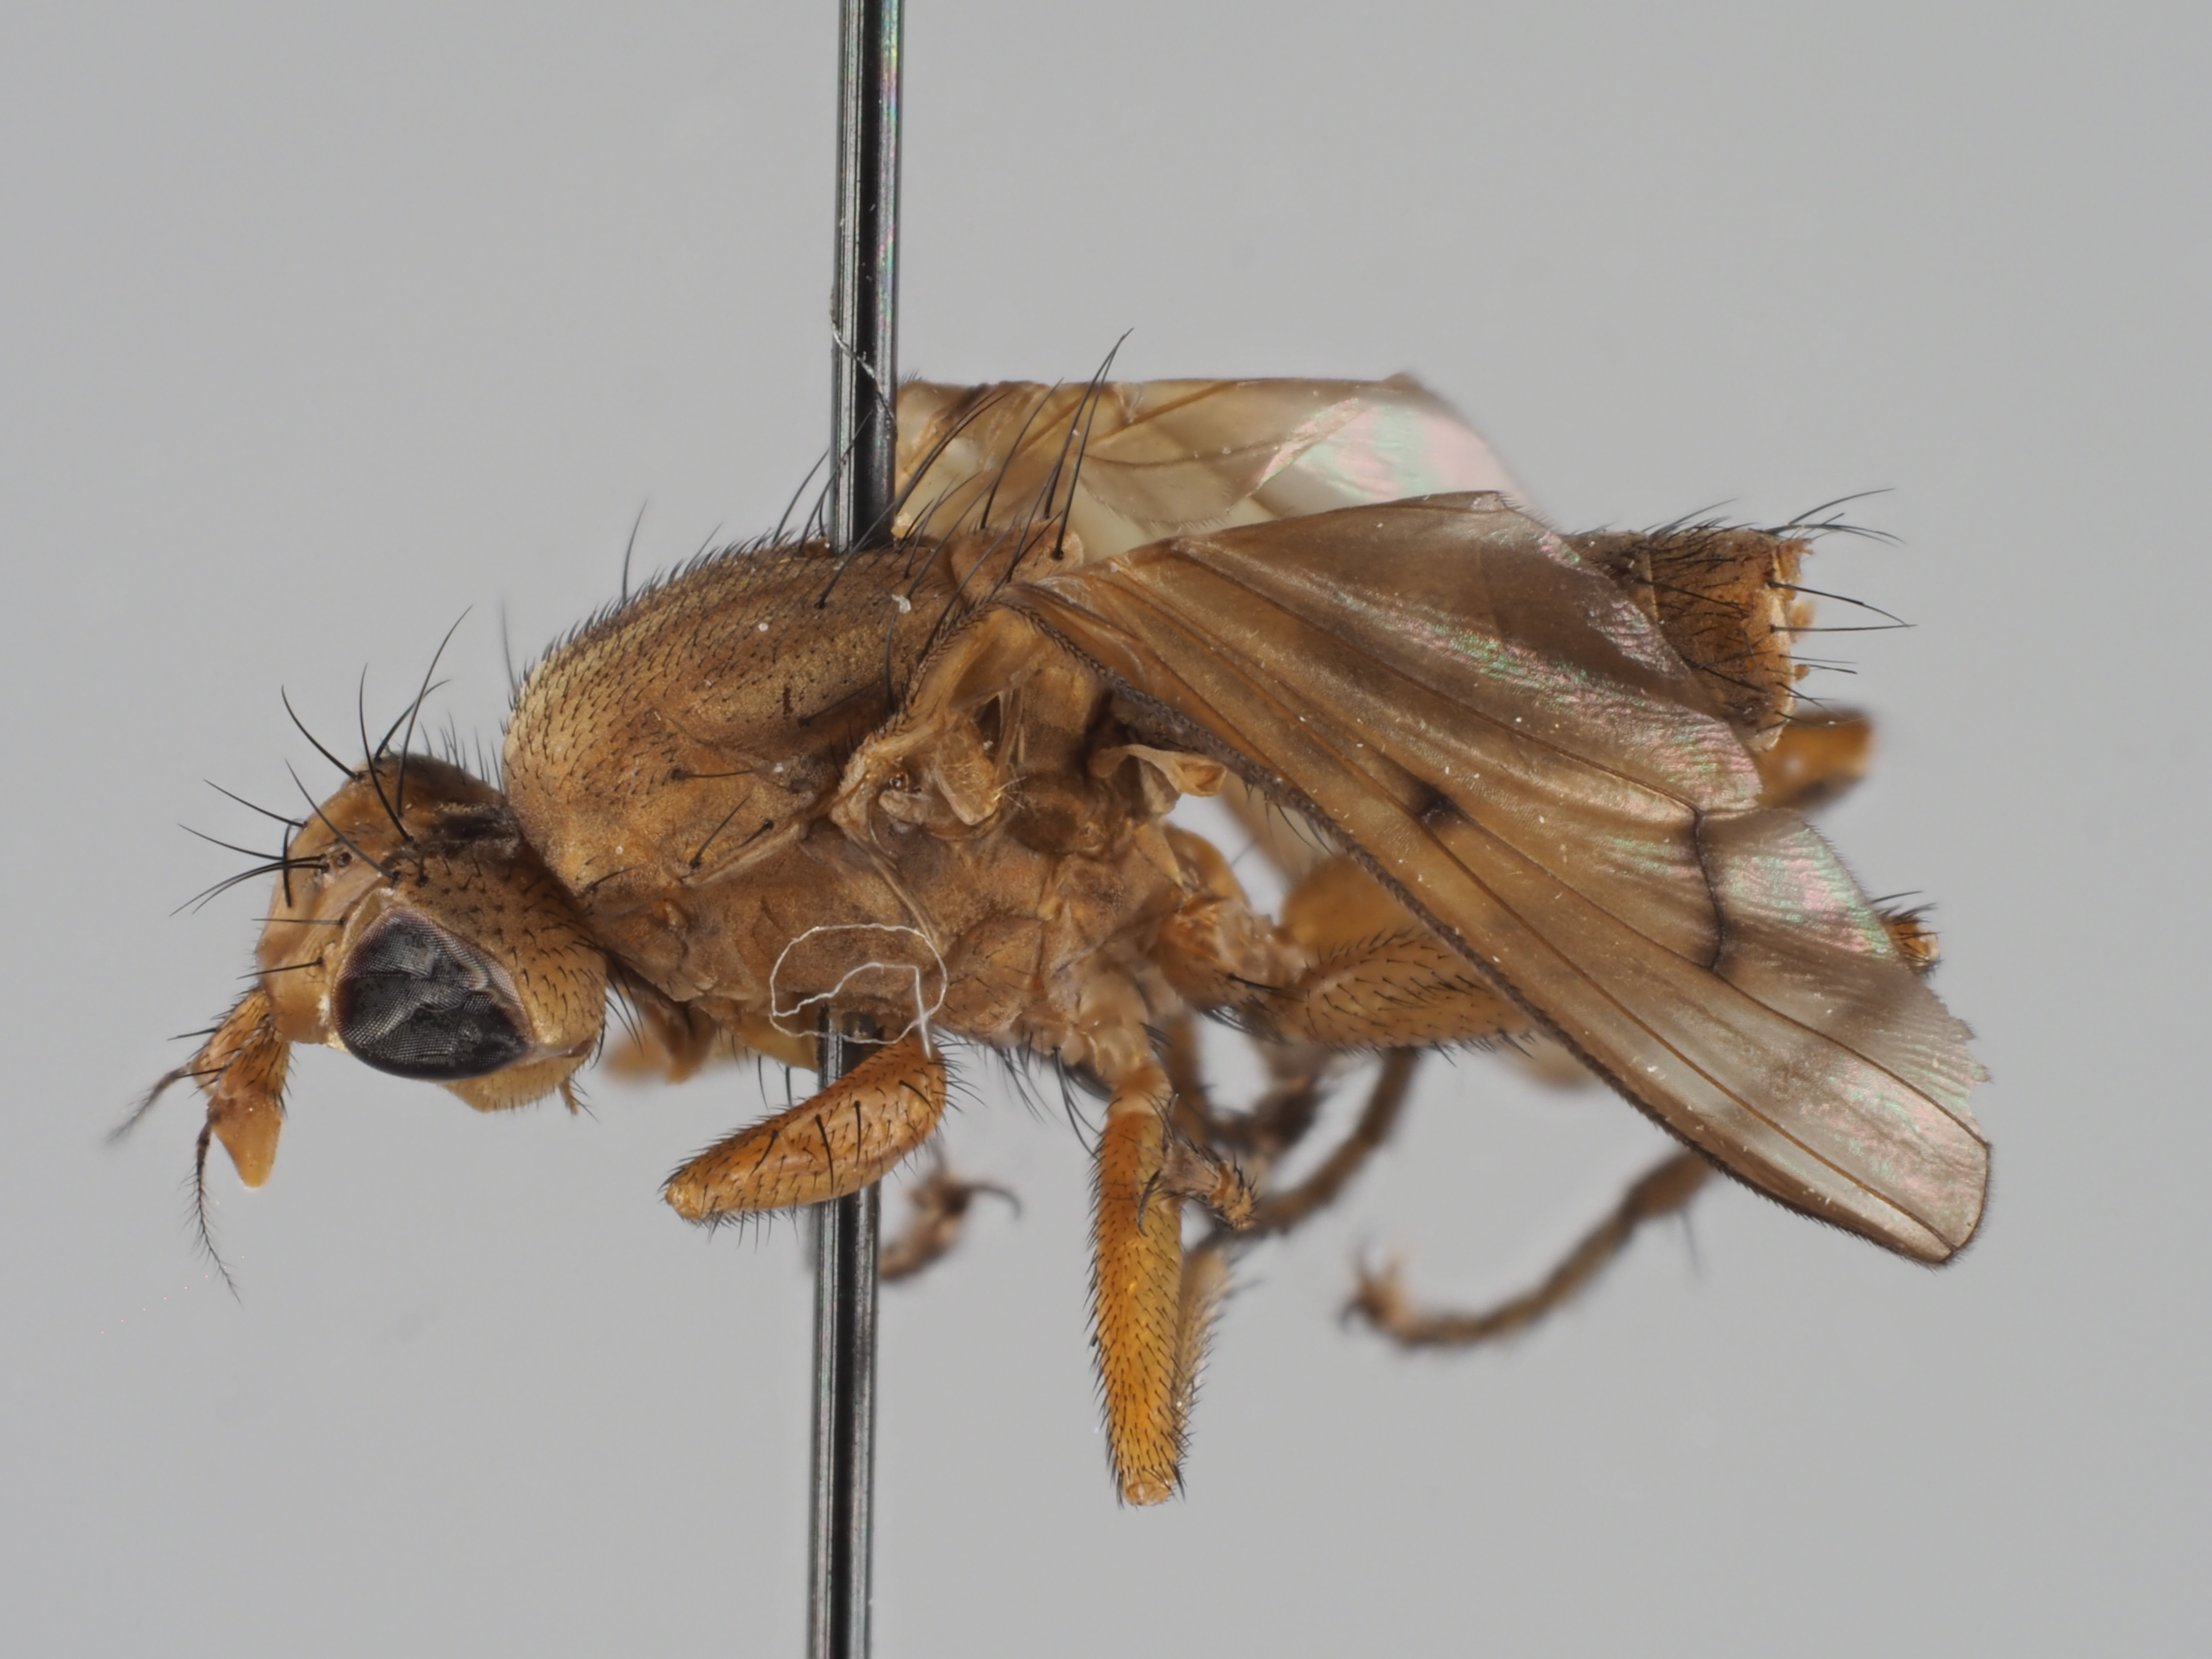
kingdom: Animalia
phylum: Arthropoda
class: Insecta
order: Diptera
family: Sciomyzidae
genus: Tetanocera
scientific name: Tetanocera kerteszi
